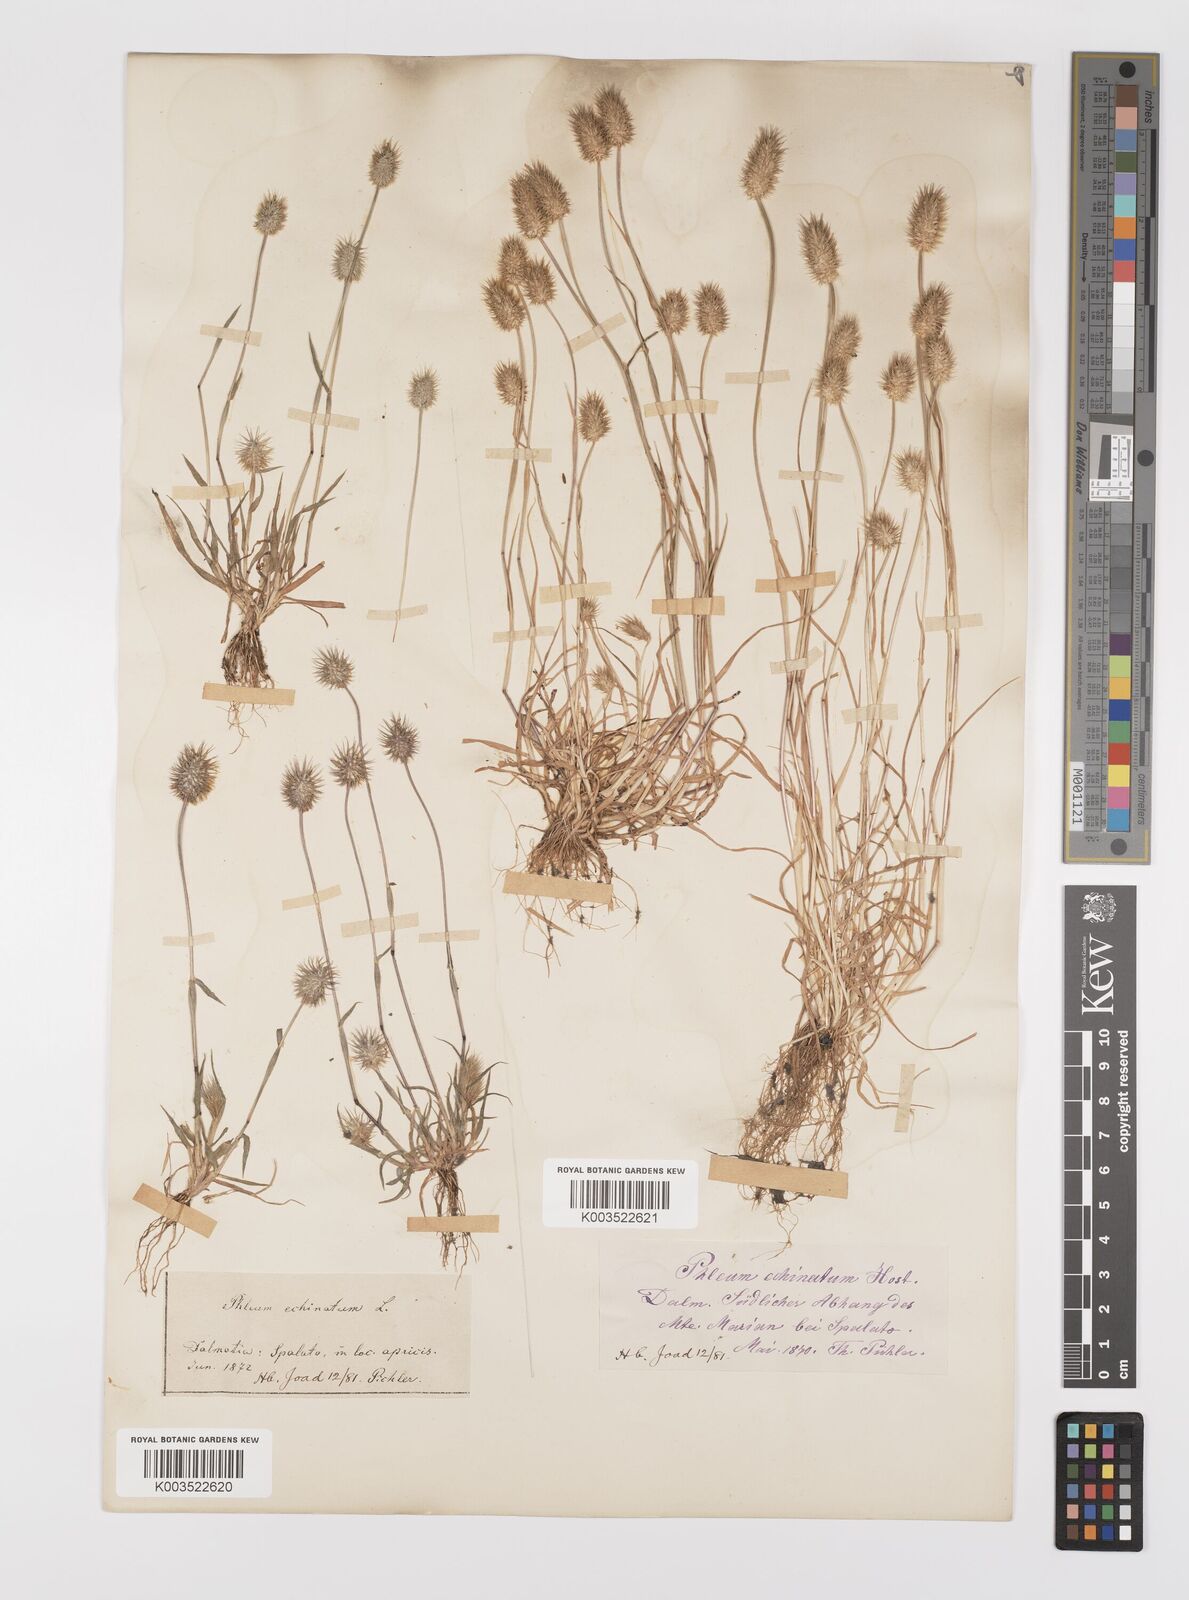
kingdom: Plantae
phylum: Tracheophyta
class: Liliopsida
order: Poales
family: Poaceae
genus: Phleum
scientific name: Phleum echinatum
